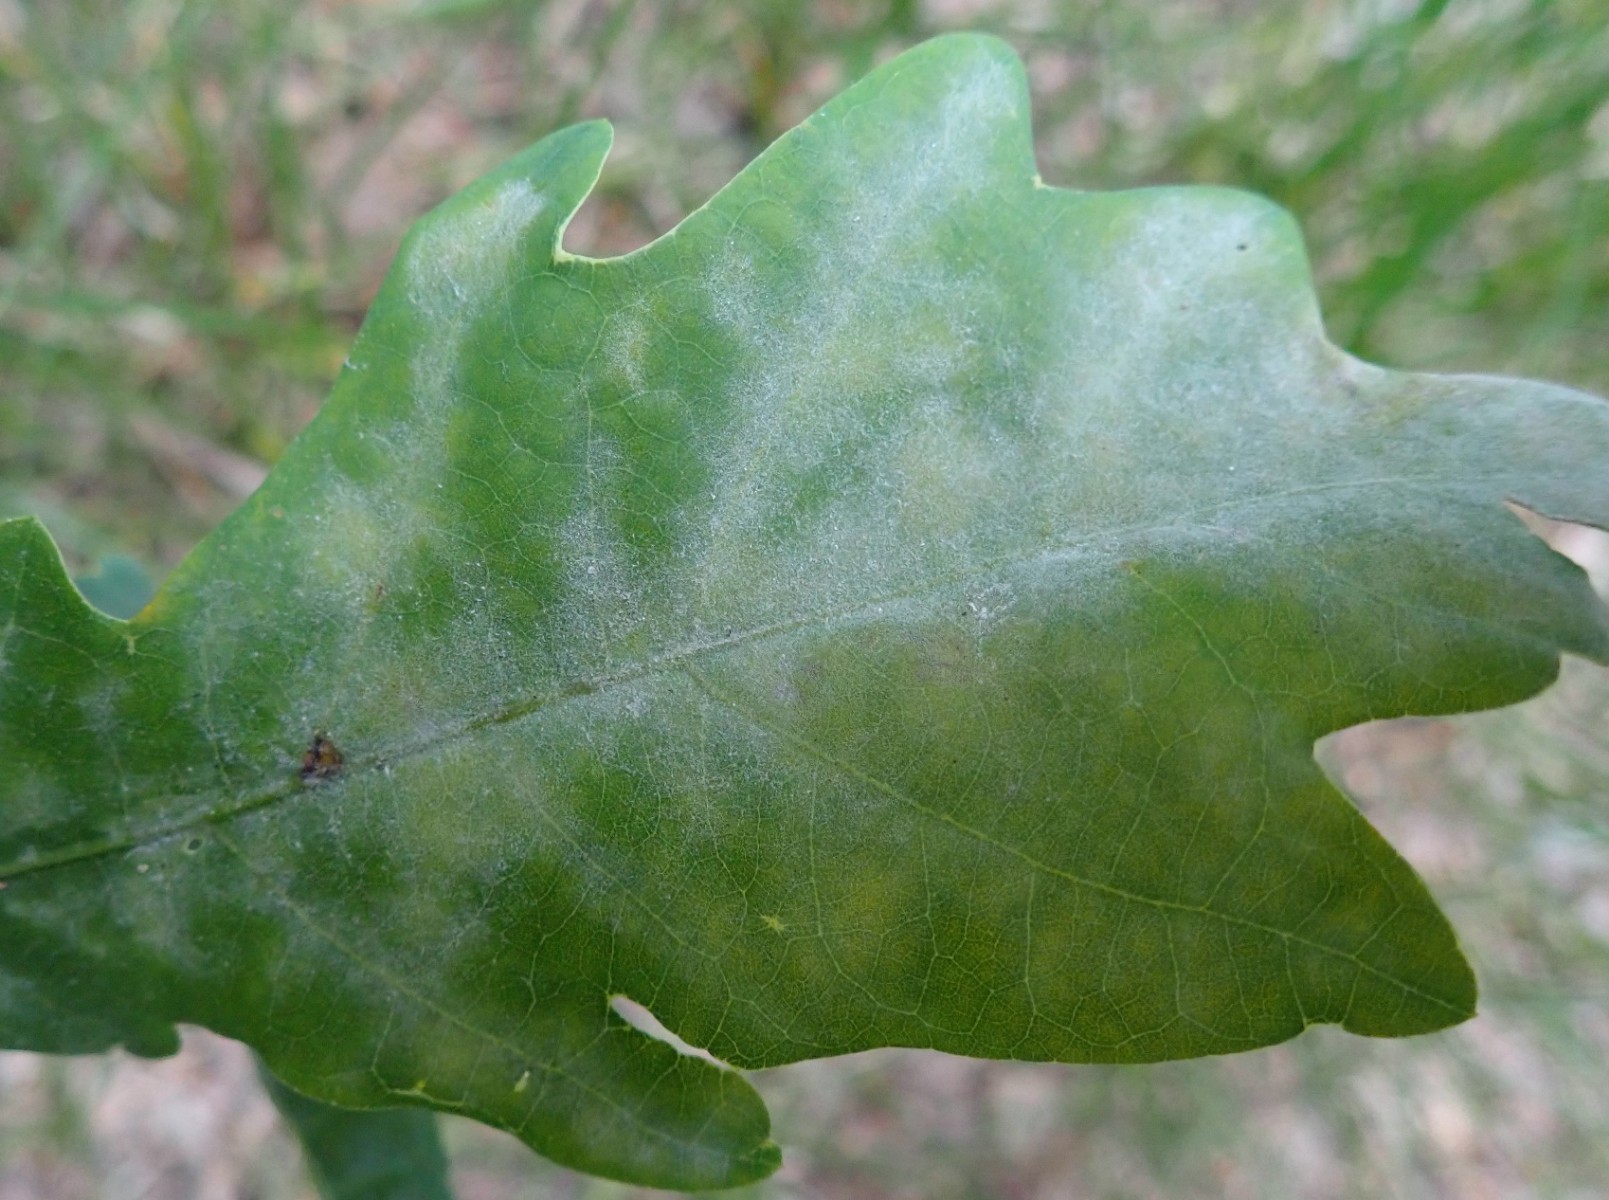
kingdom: Fungi
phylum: Ascomycota
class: Leotiomycetes
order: Helotiales
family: Erysiphaceae
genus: Erysiphe
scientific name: Erysiphe alphitoides
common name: ege-meldug
